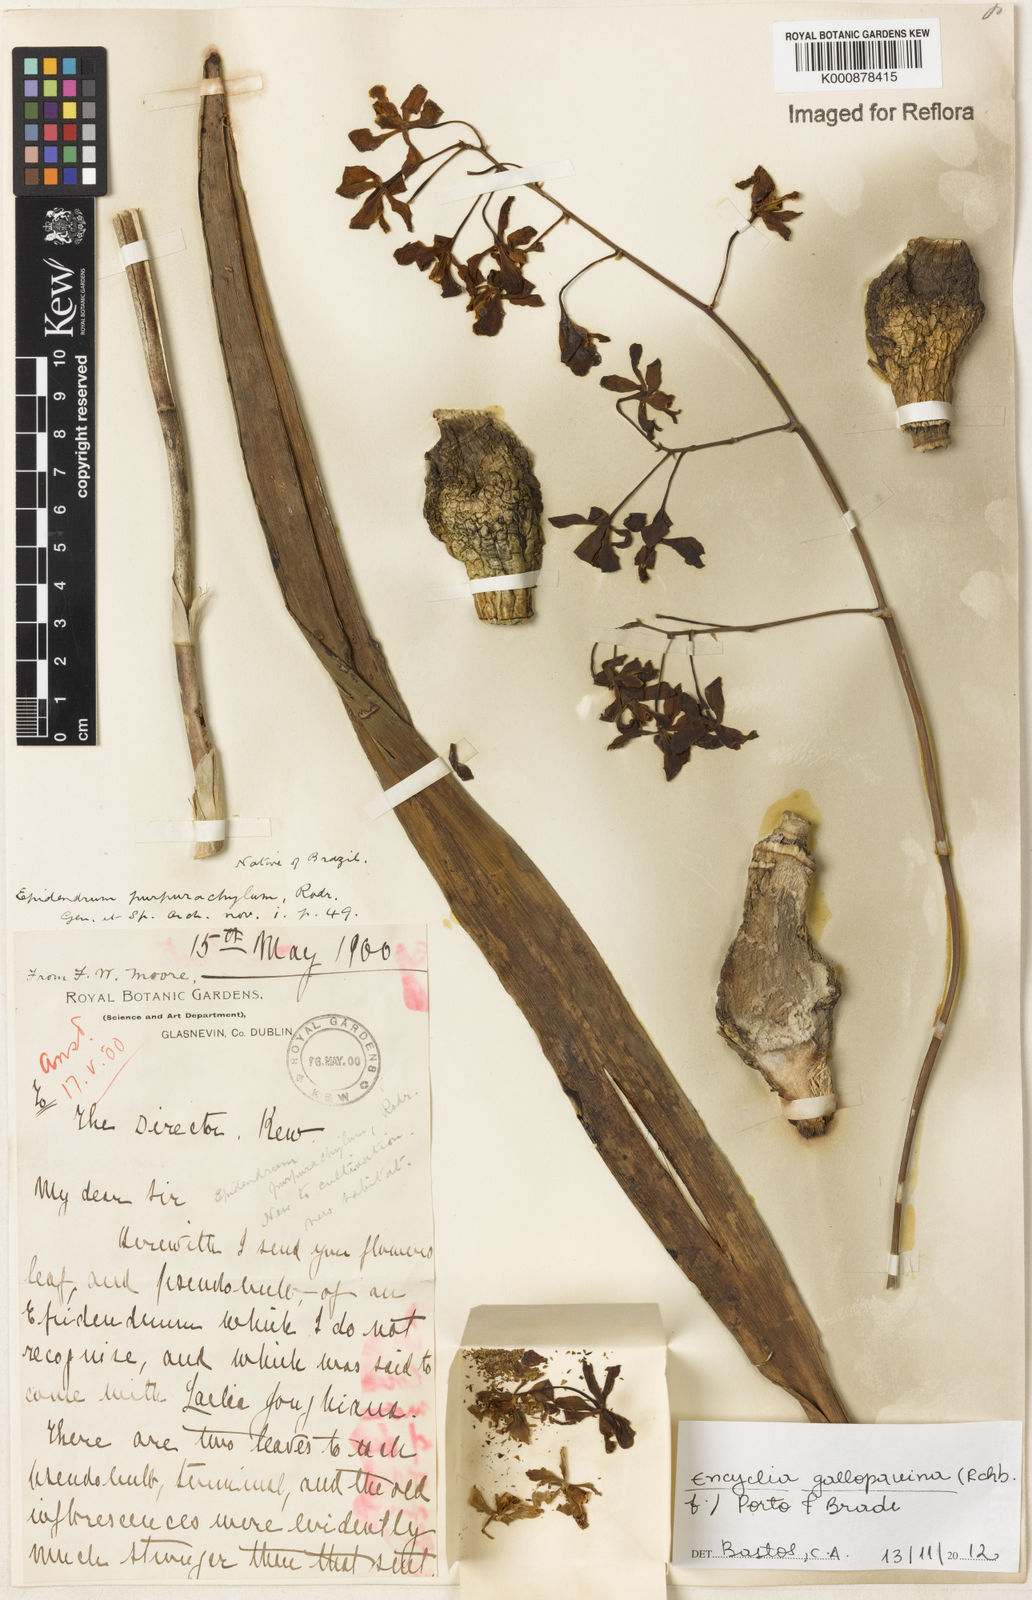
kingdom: Plantae
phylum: Tracheophyta
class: Liliopsida
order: Asparagales
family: Orchidaceae
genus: Encyclia
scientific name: Encyclia gallopavina
